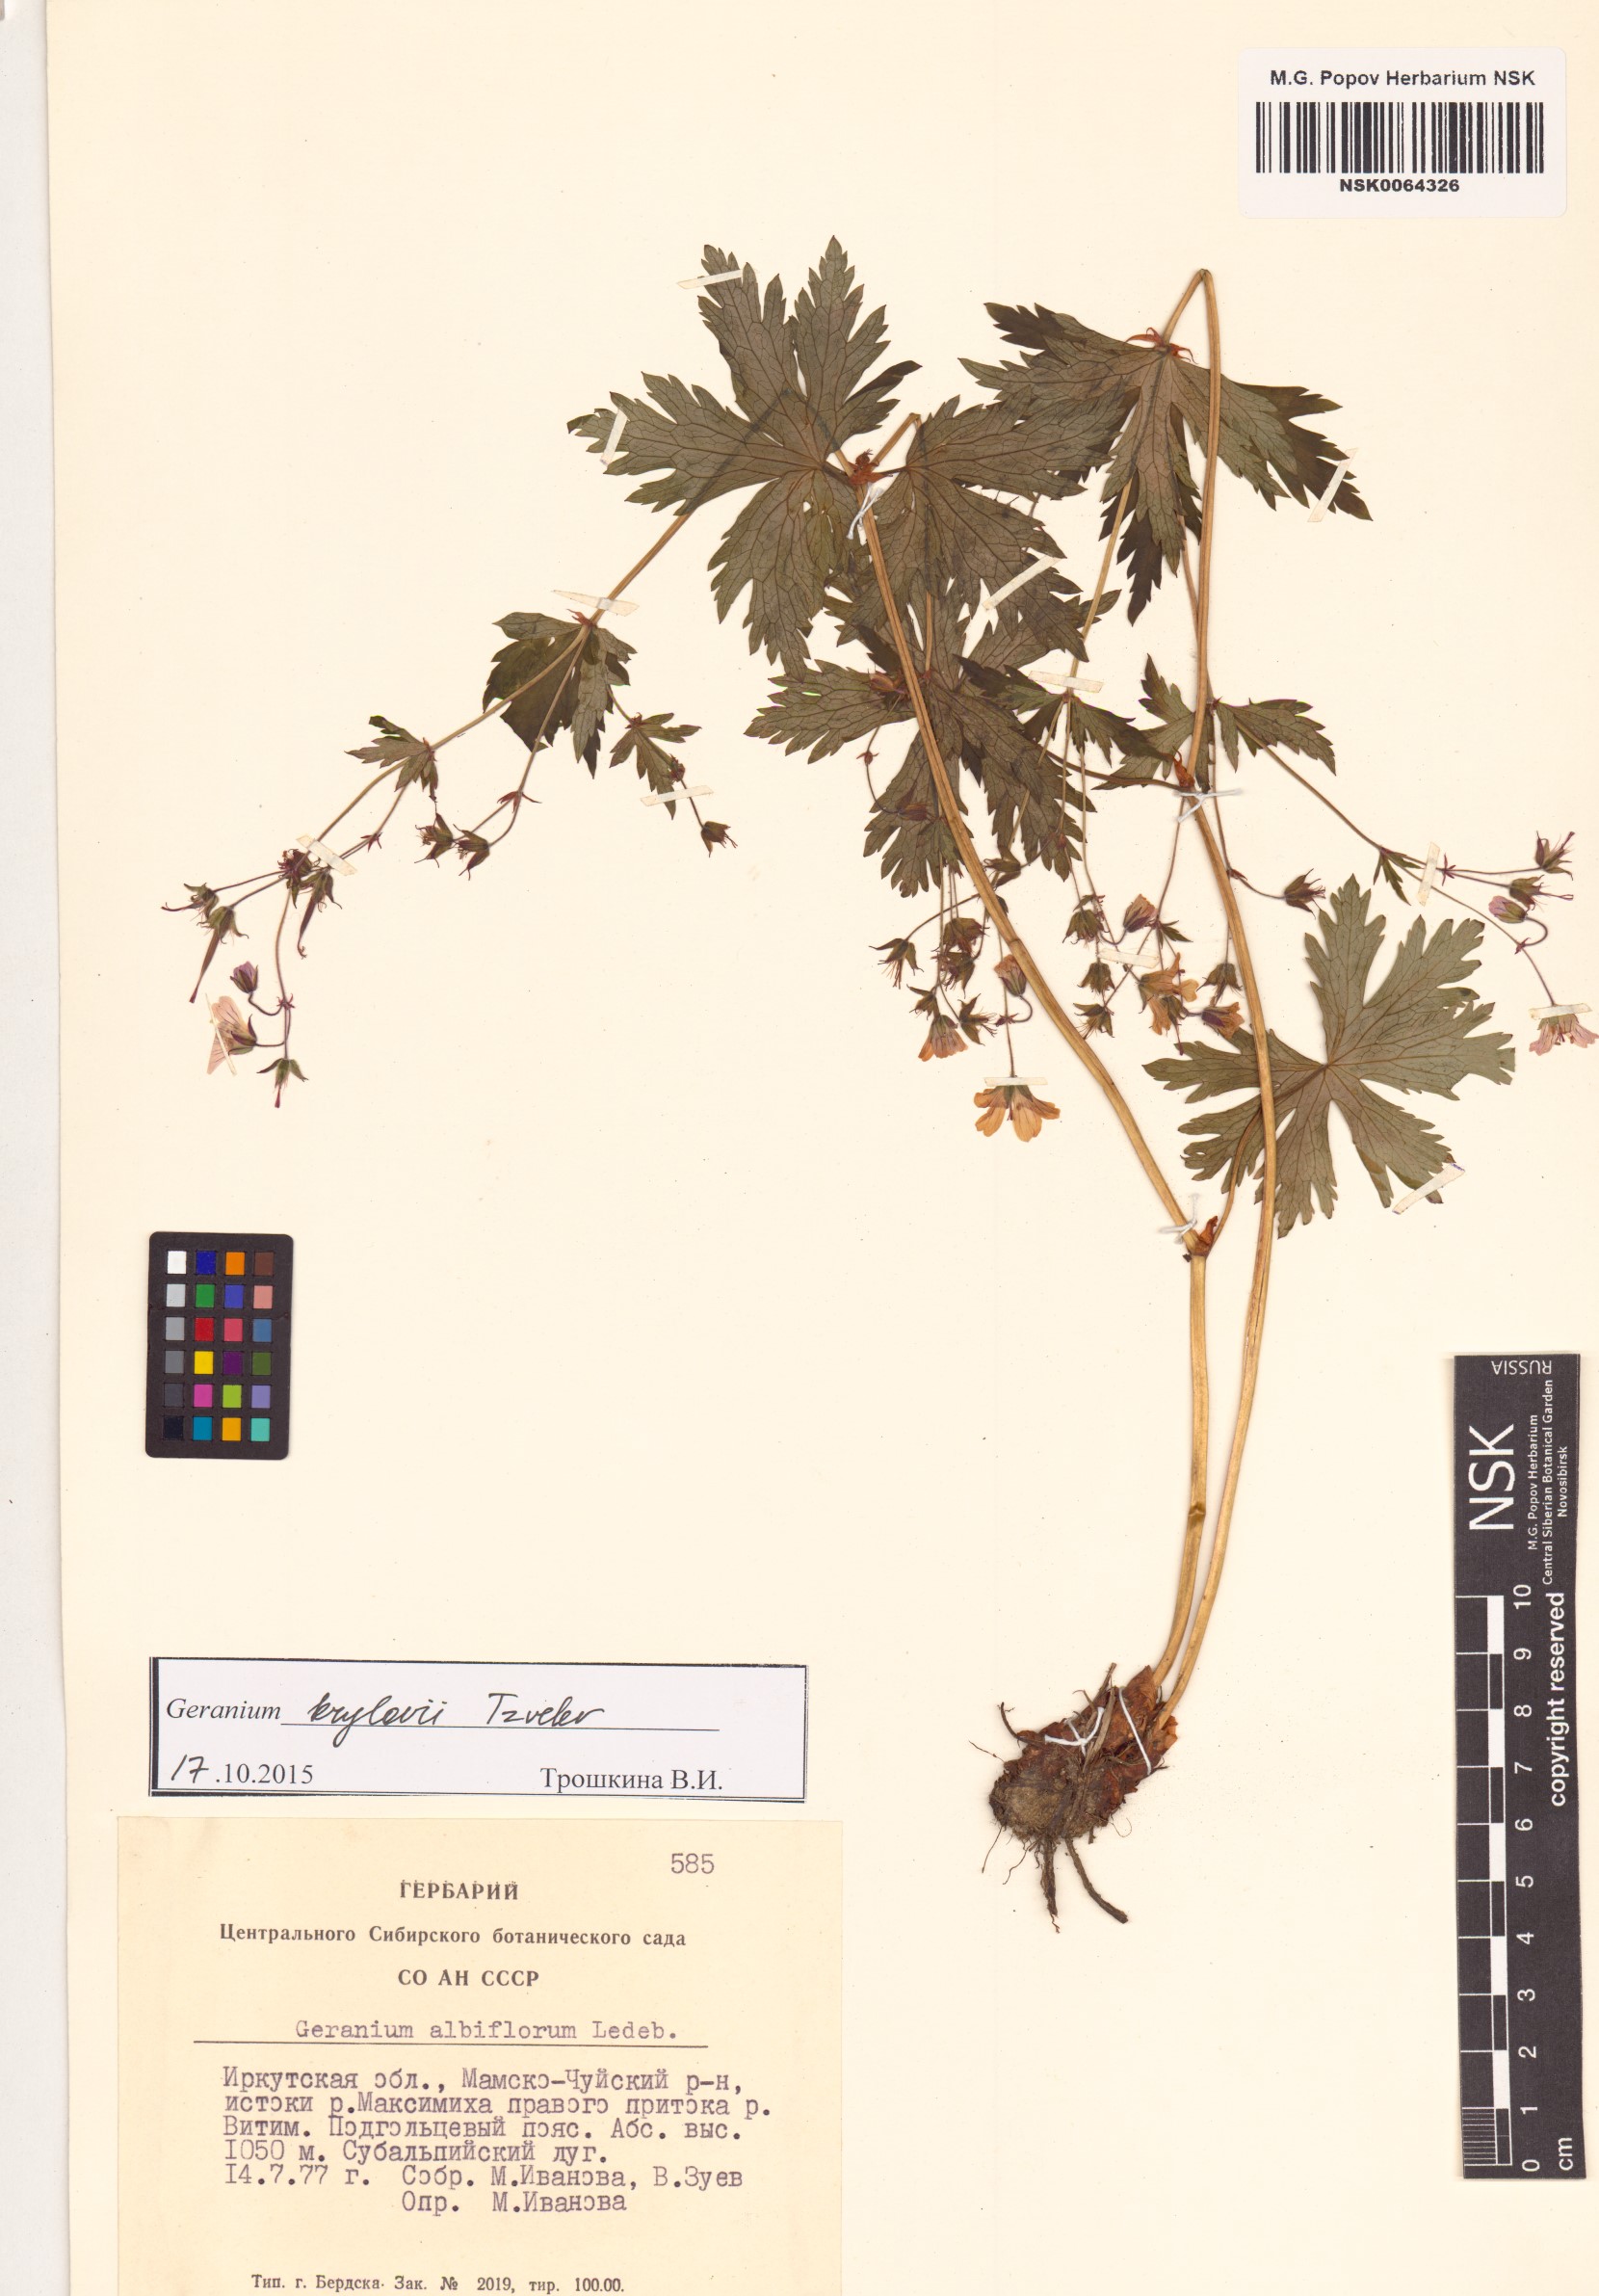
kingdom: Plantae
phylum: Tracheophyta
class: Magnoliopsida
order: Geraniales
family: Geraniaceae
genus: Geranium
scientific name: Geranium sylvaticum
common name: Wood crane's-bill
